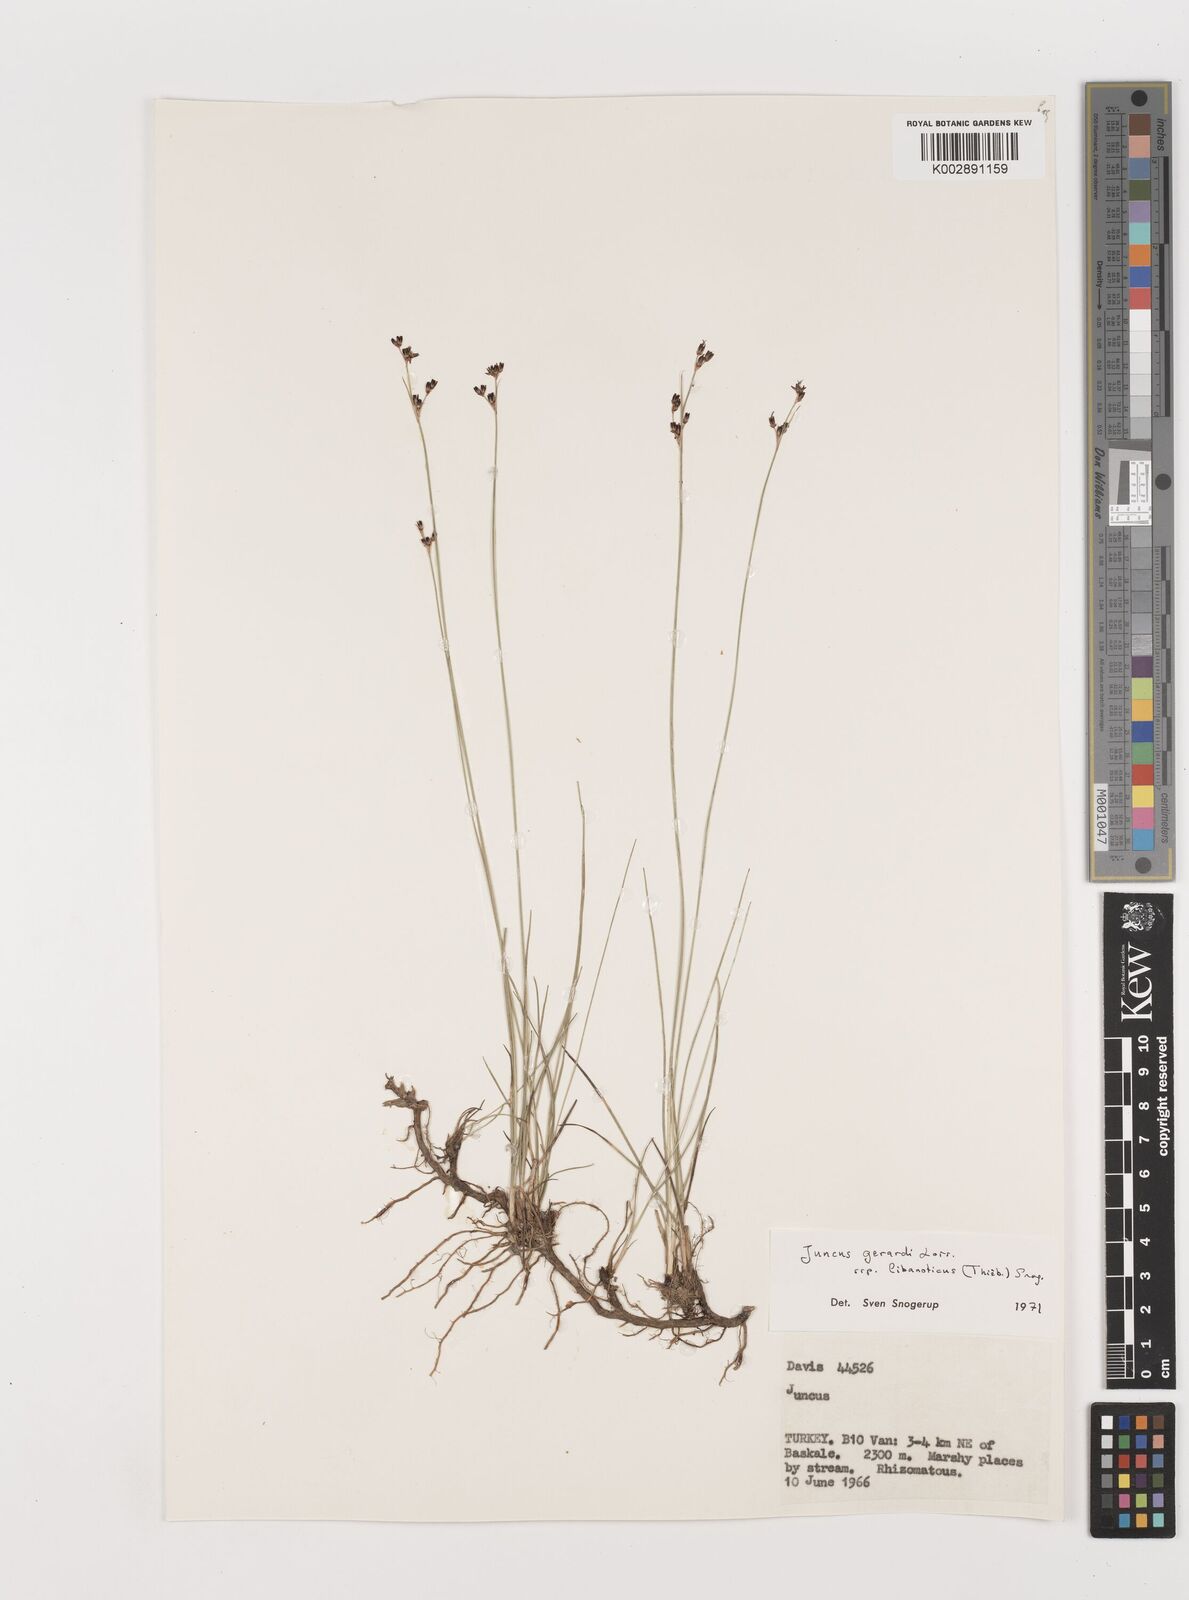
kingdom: Plantae
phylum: Tracheophyta
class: Liliopsida
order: Poales
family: Juncaceae
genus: Juncus
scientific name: Juncus persicus
